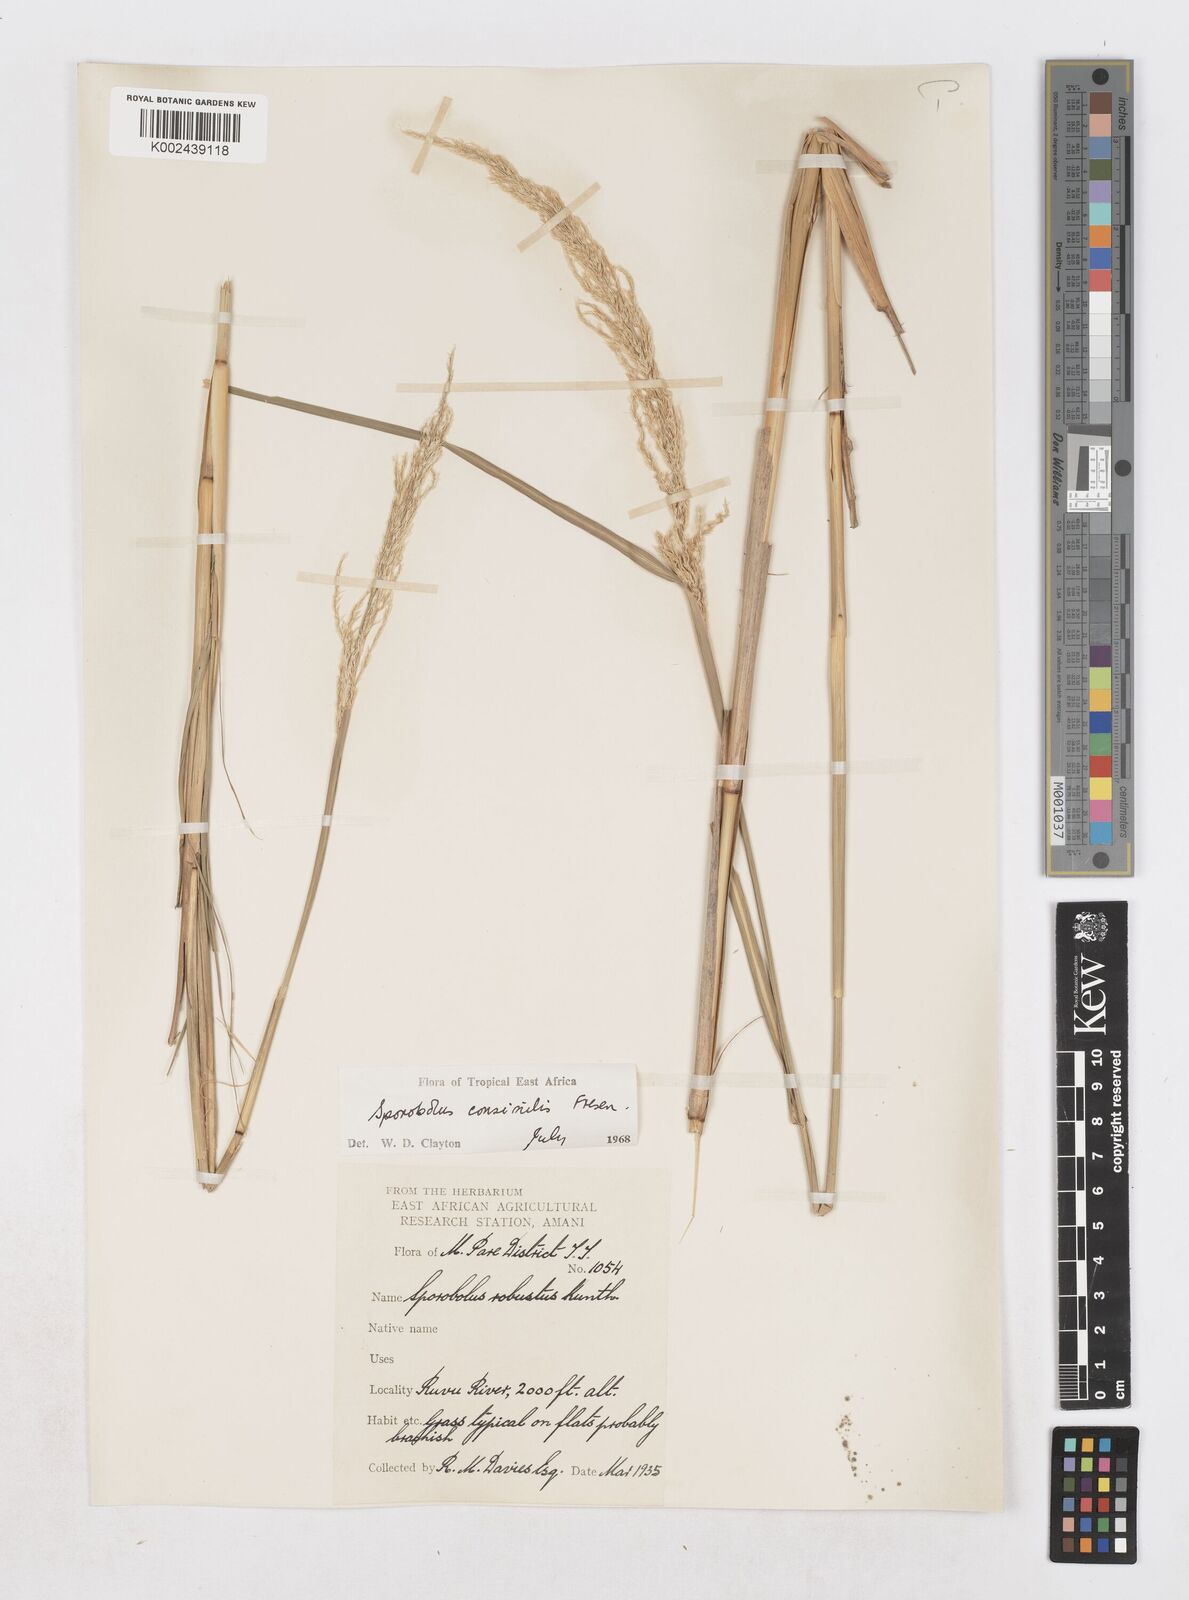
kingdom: Plantae
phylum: Tracheophyta
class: Liliopsida
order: Poales
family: Poaceae
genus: Sporobolus
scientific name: Sporobolus consimilis
